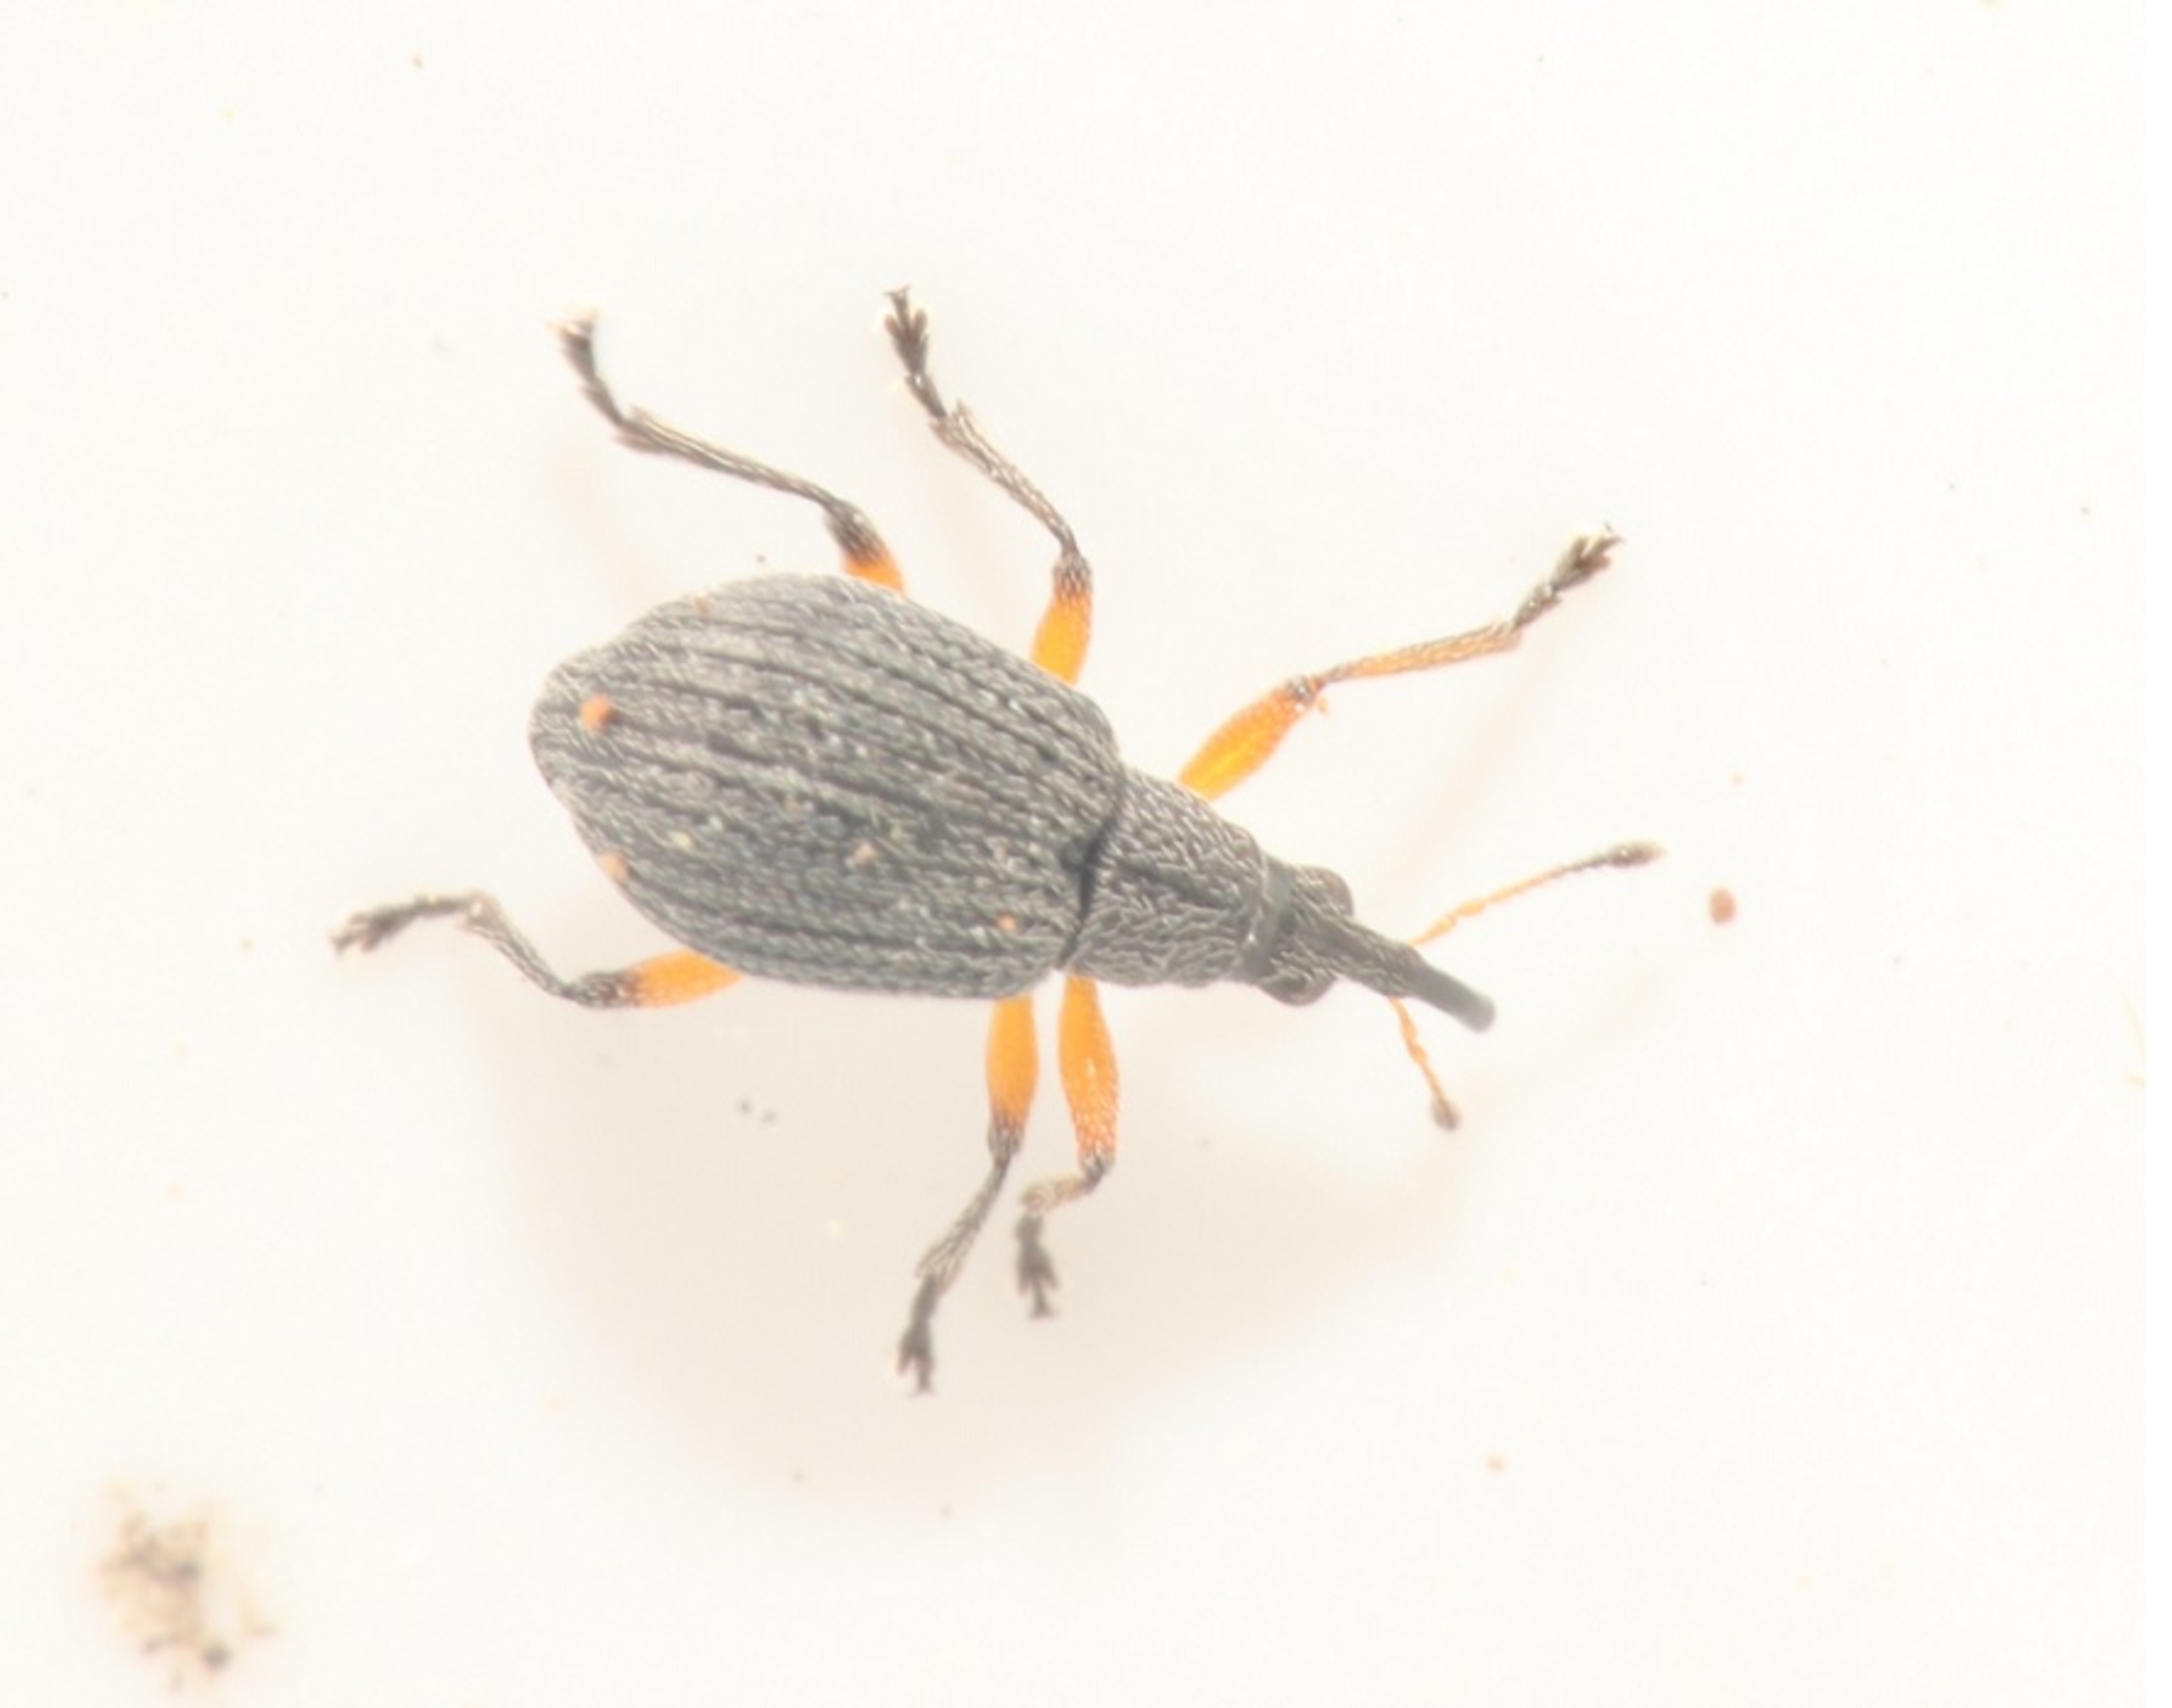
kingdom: Animalia
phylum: Arthropoda
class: Insecta
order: Coleoptera
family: Brentidae
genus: Eutrichapion
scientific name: Eutrichapion viciae
